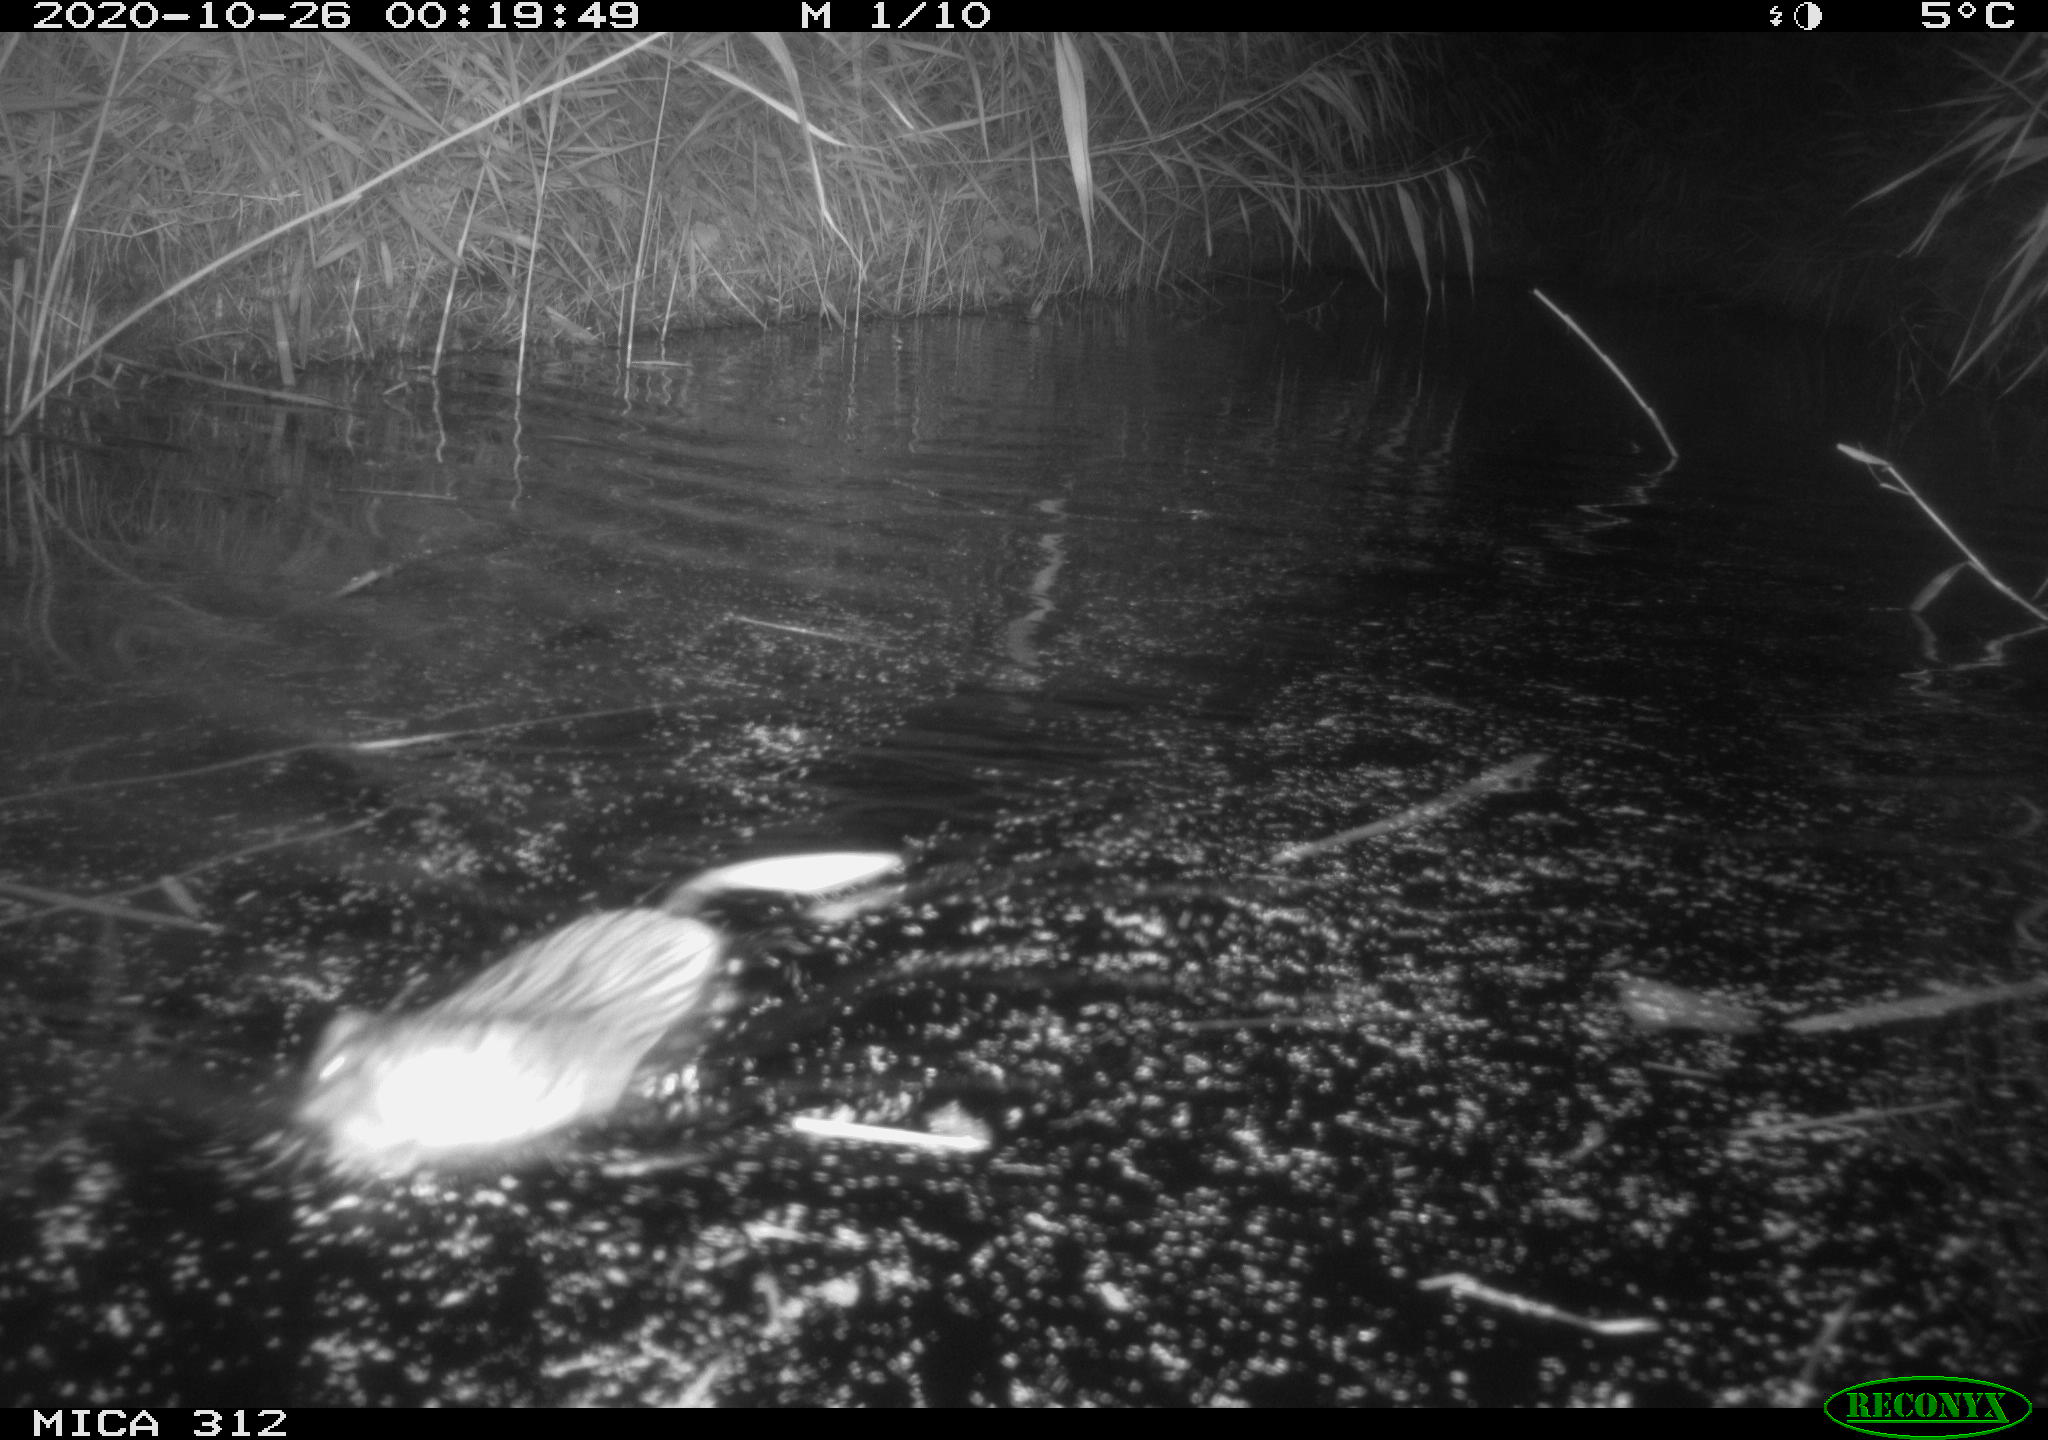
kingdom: Animalia
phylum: Chordata
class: Mammalia
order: Rodentia
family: Cricetidae
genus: Ondatra
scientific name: Ondatra zibethicus
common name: Muskrat
